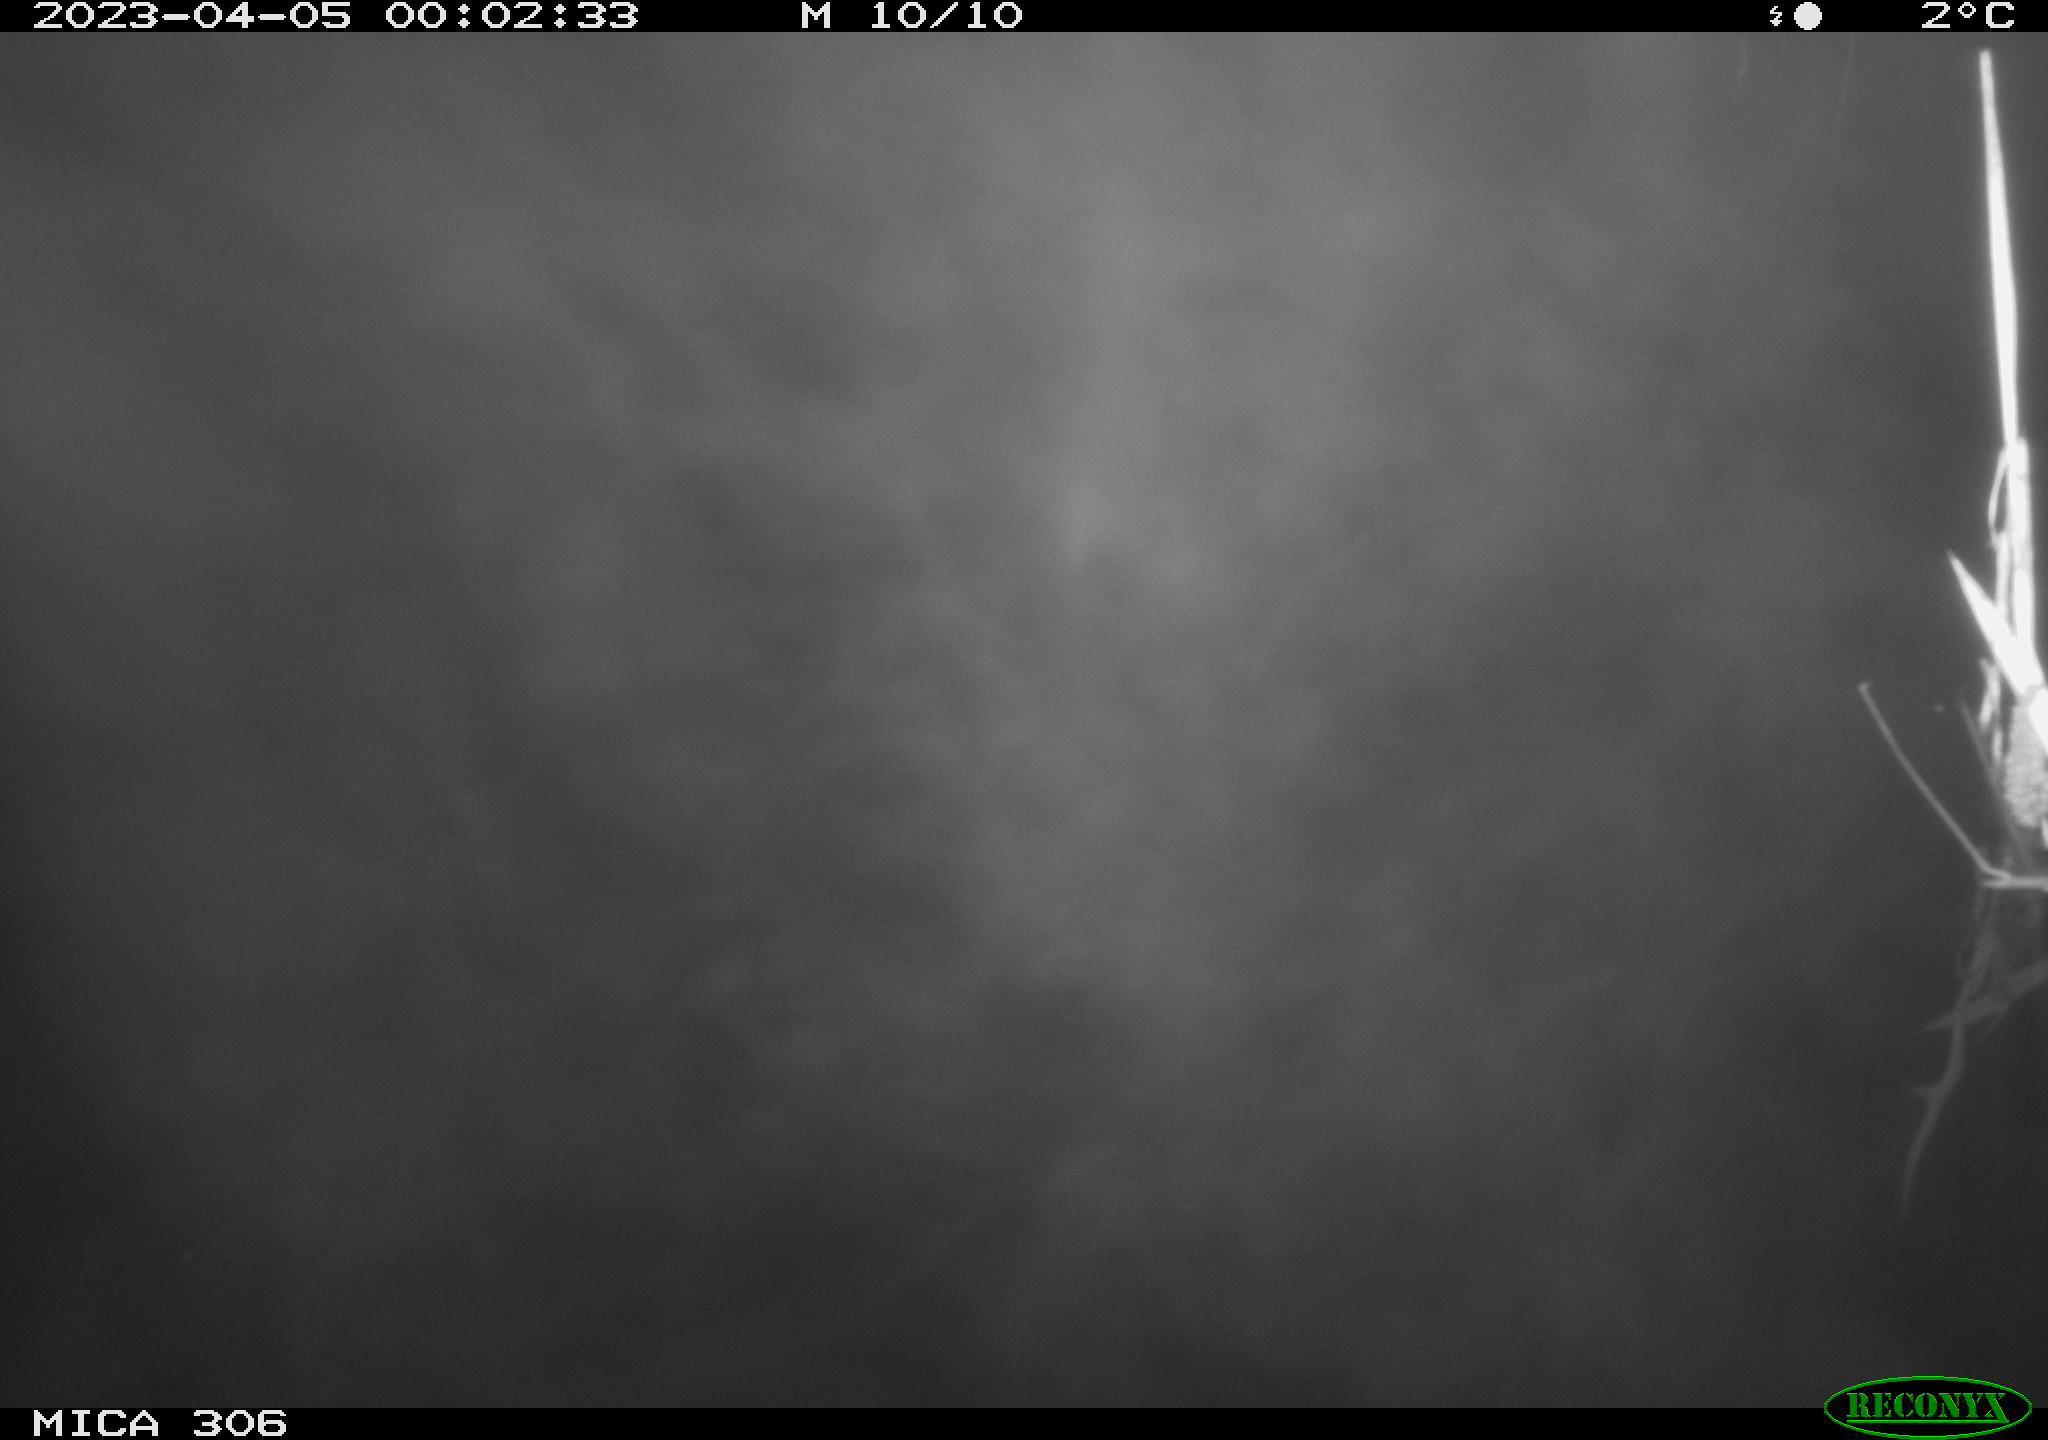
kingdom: Animalia
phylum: Chordata
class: Aves
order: Anseriformes
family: Anatidae
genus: Anas
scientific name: Anas
